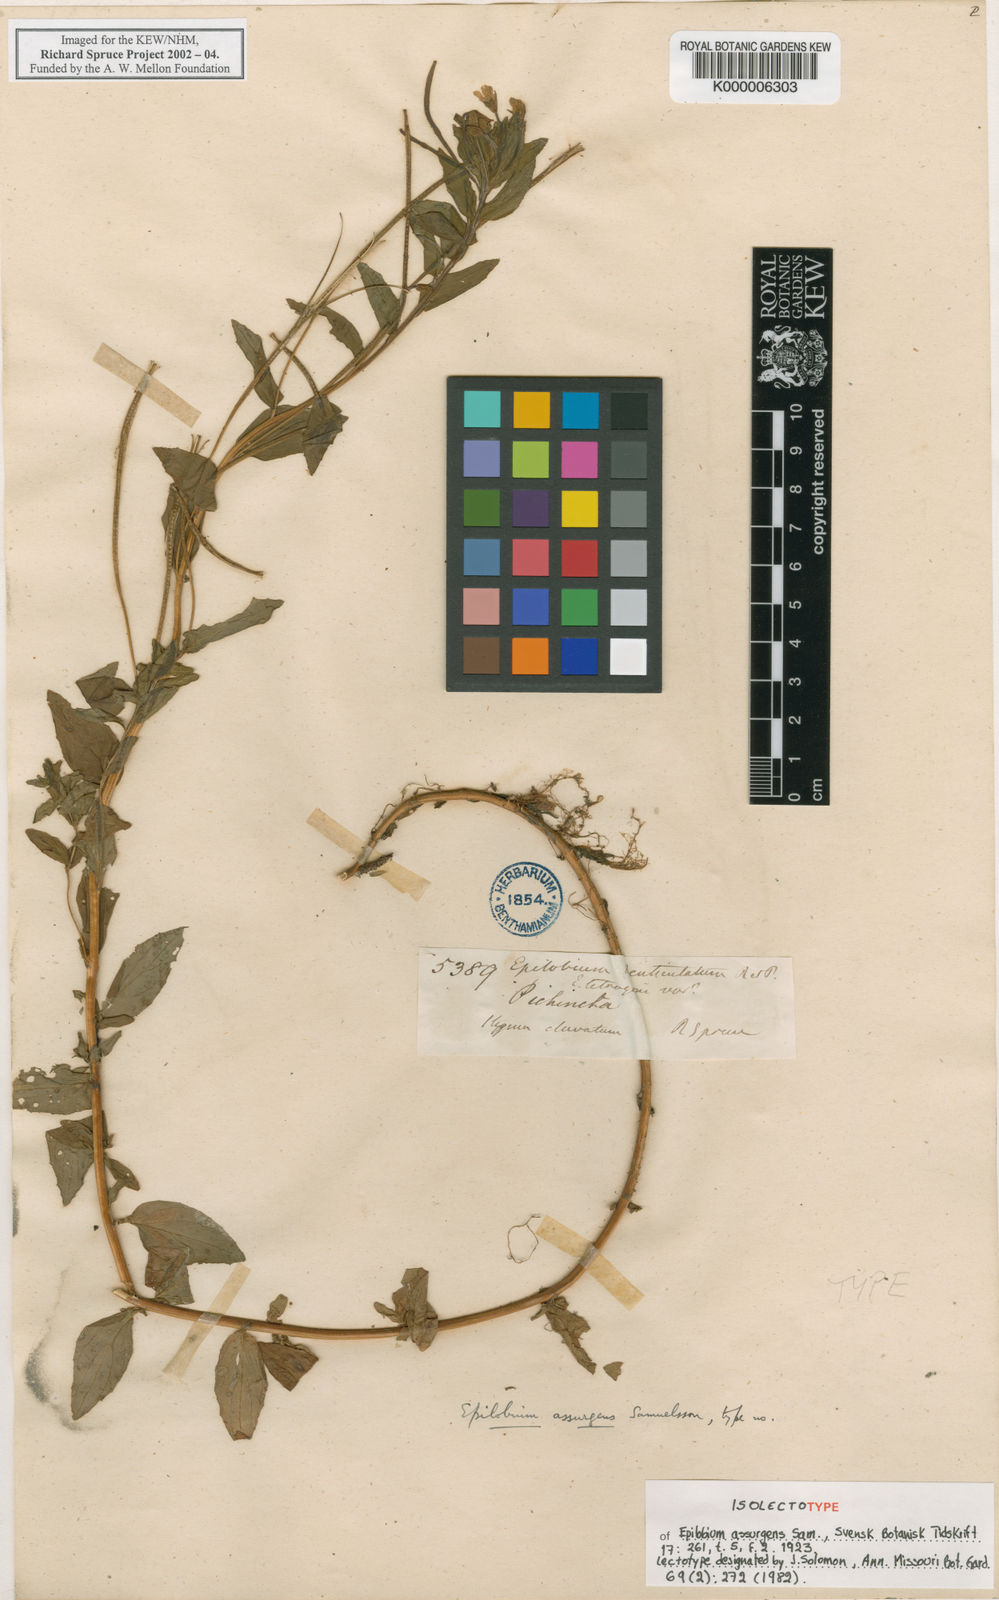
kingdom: Plantae
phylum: Tracheophyta
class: Magnoliopsida
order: Myrtales
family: Onagraceae
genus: Epilobium
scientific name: Epilobium denticulatum
